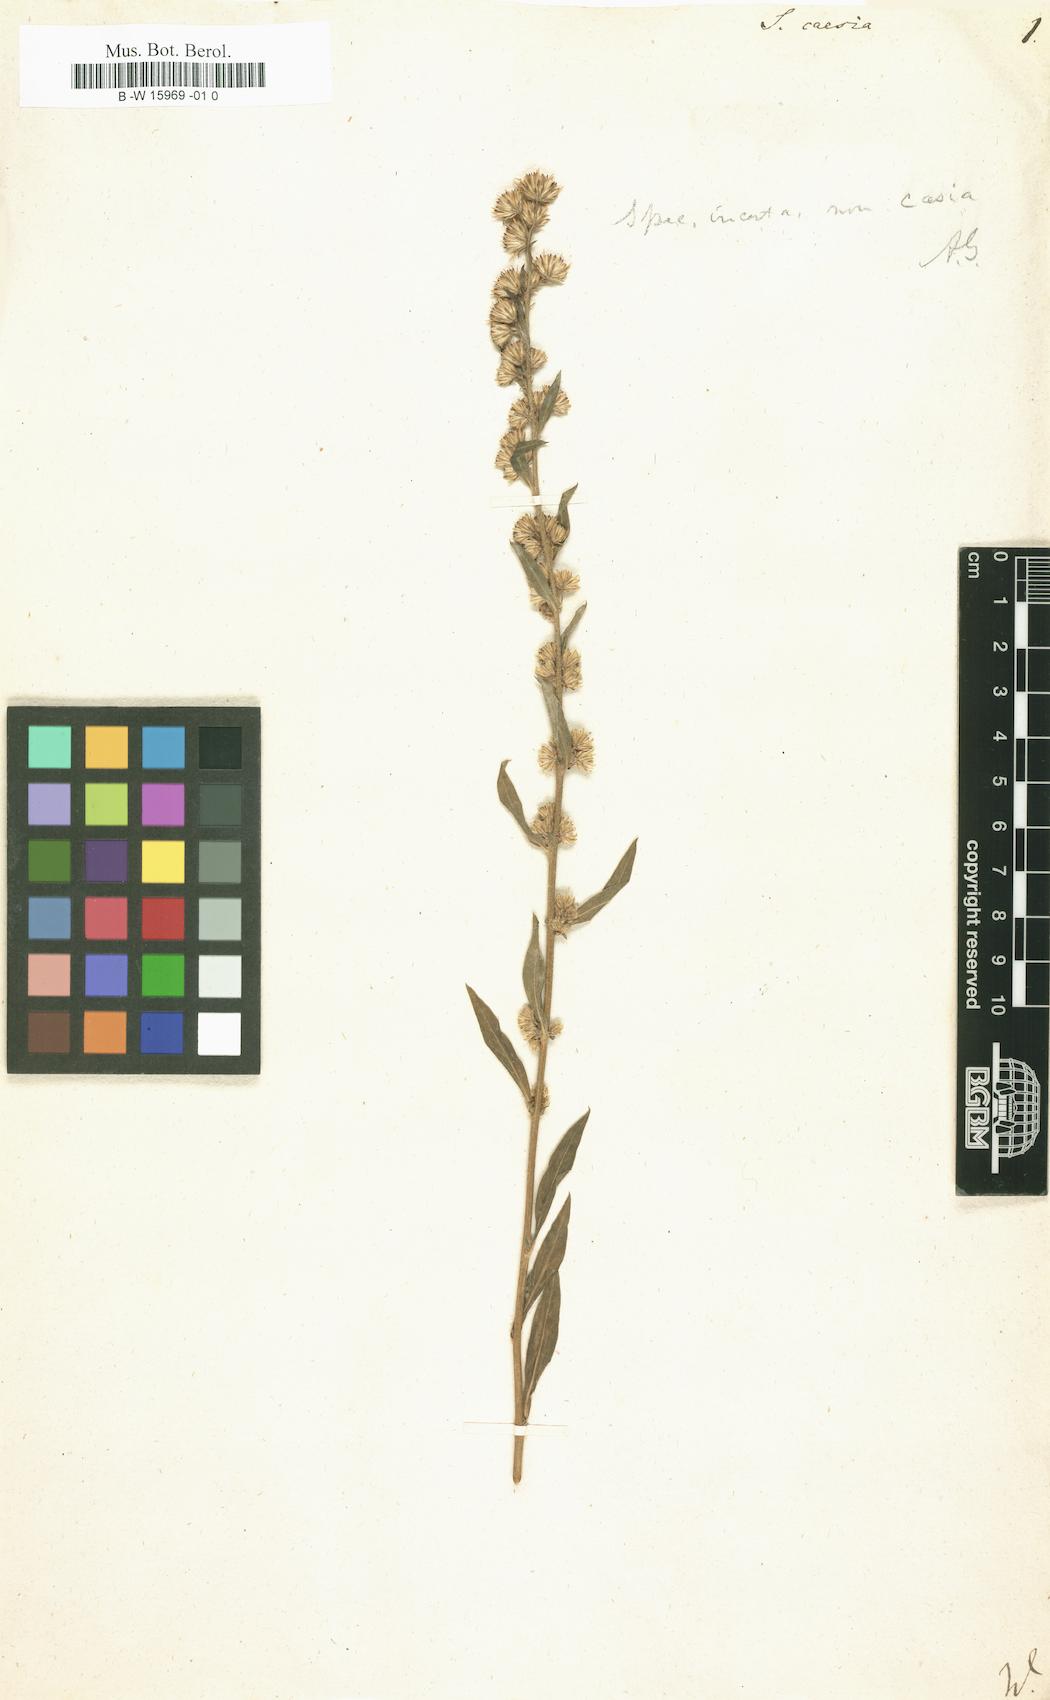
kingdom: Plantae
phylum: Tracheophyta
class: Magnoliopsida
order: Asterales
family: Asteraceae
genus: Solidago
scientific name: Solidago caesia
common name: Woodland goldenrod
